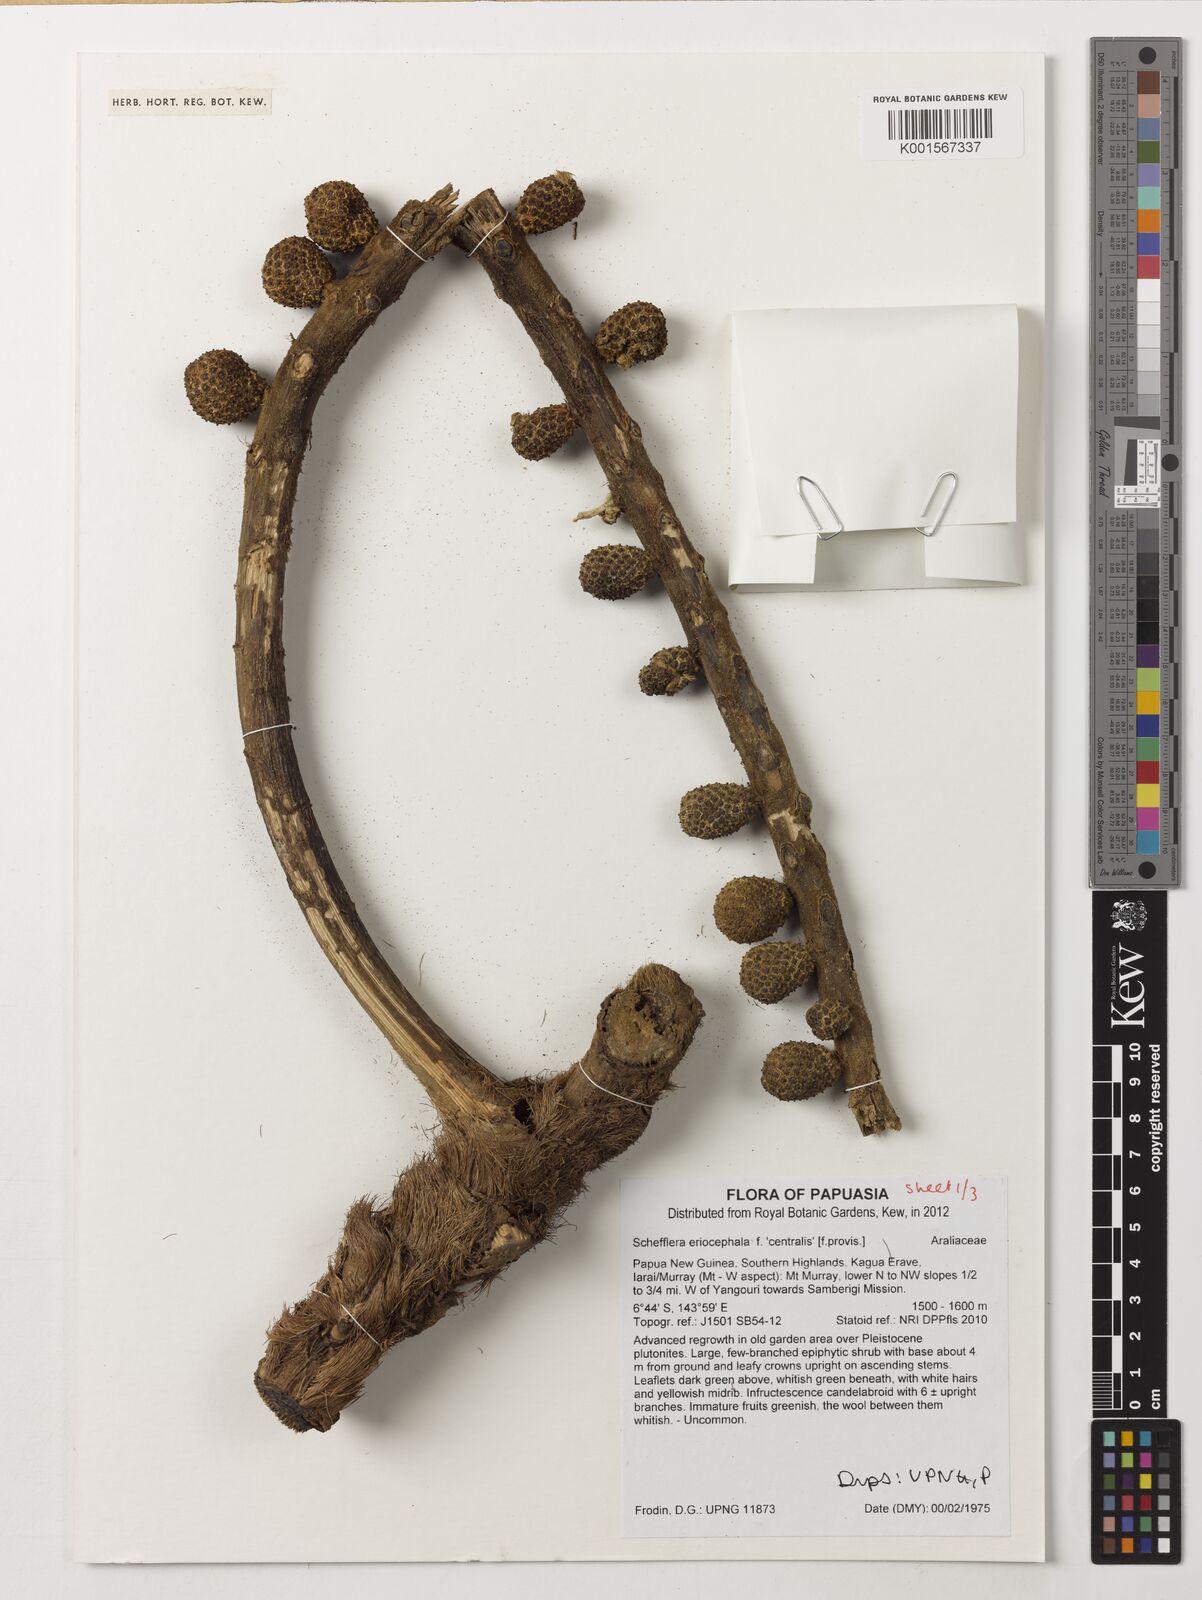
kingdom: Plantae
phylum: Tracheophyta
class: Magnoliopsida
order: Apiales
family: Araliaceae
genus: Heptapleurum
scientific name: Heptapleurum eriocephalum
